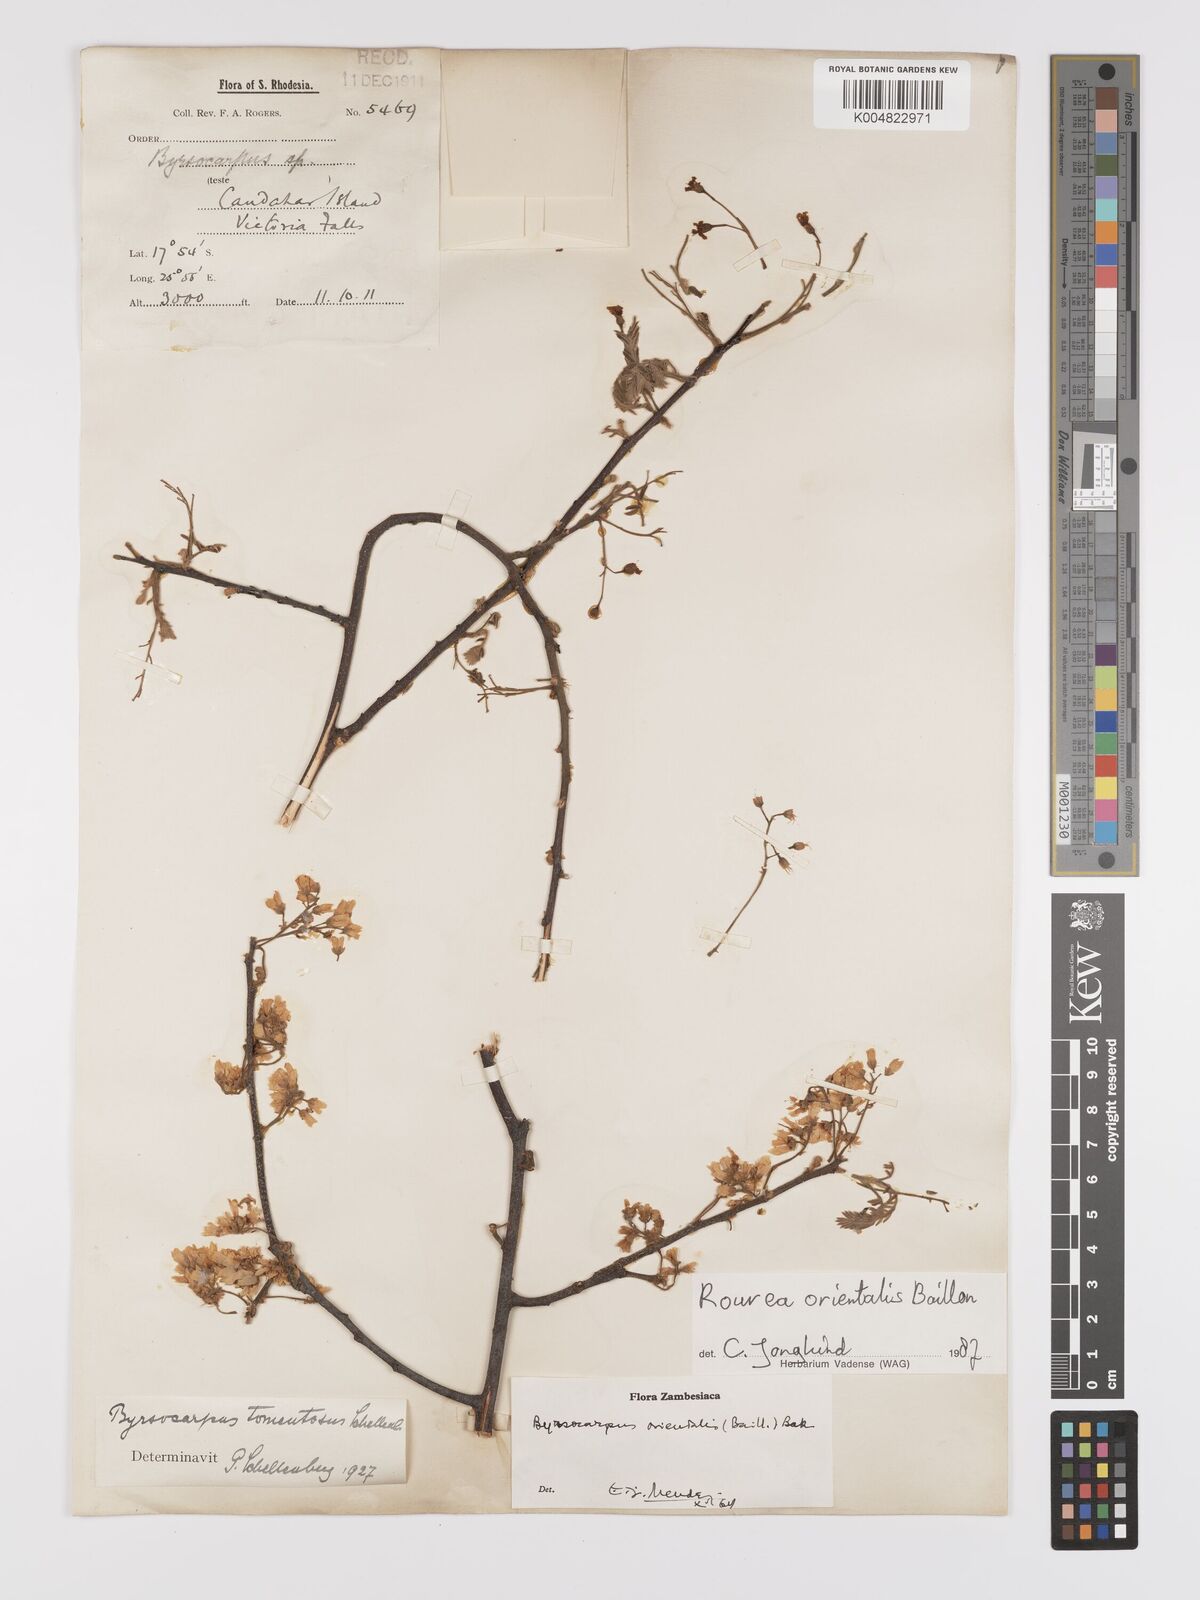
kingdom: Plantae
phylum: Tracheophyta
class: Magnoliopsida
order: Oxalidales
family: Connaraceae
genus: Rourea
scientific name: Rourea orientalis
